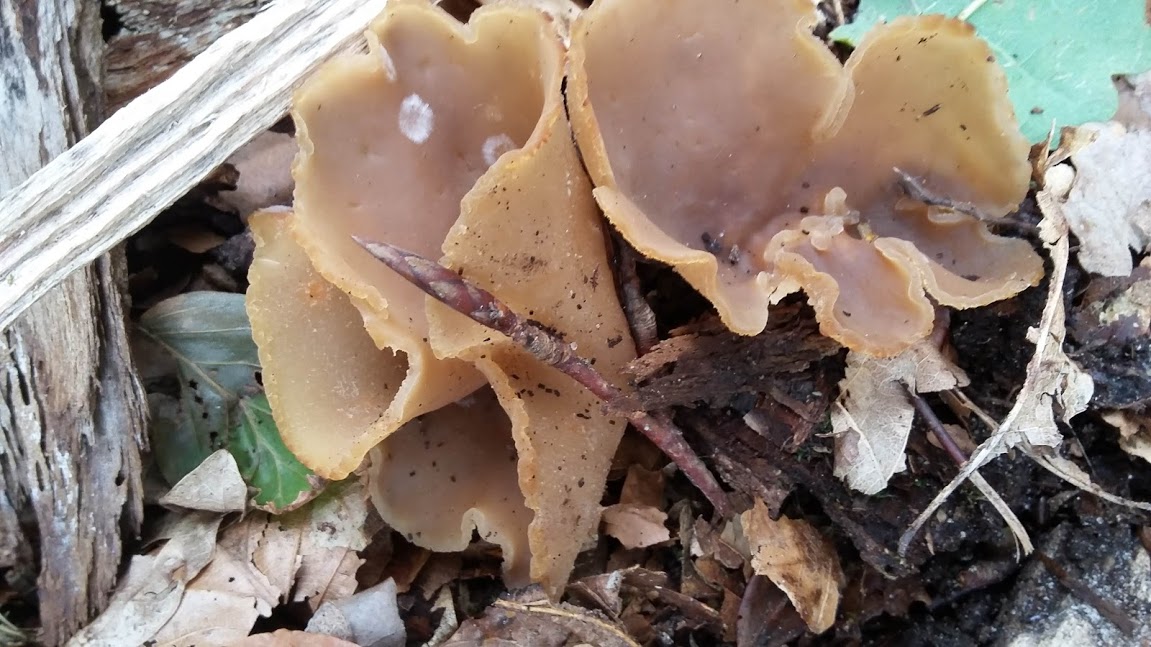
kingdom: Fungi
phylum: Ascomycota
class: Pezizomycetes
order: Pezizales
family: Pezizaceae
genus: Peziza
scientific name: Peziza
